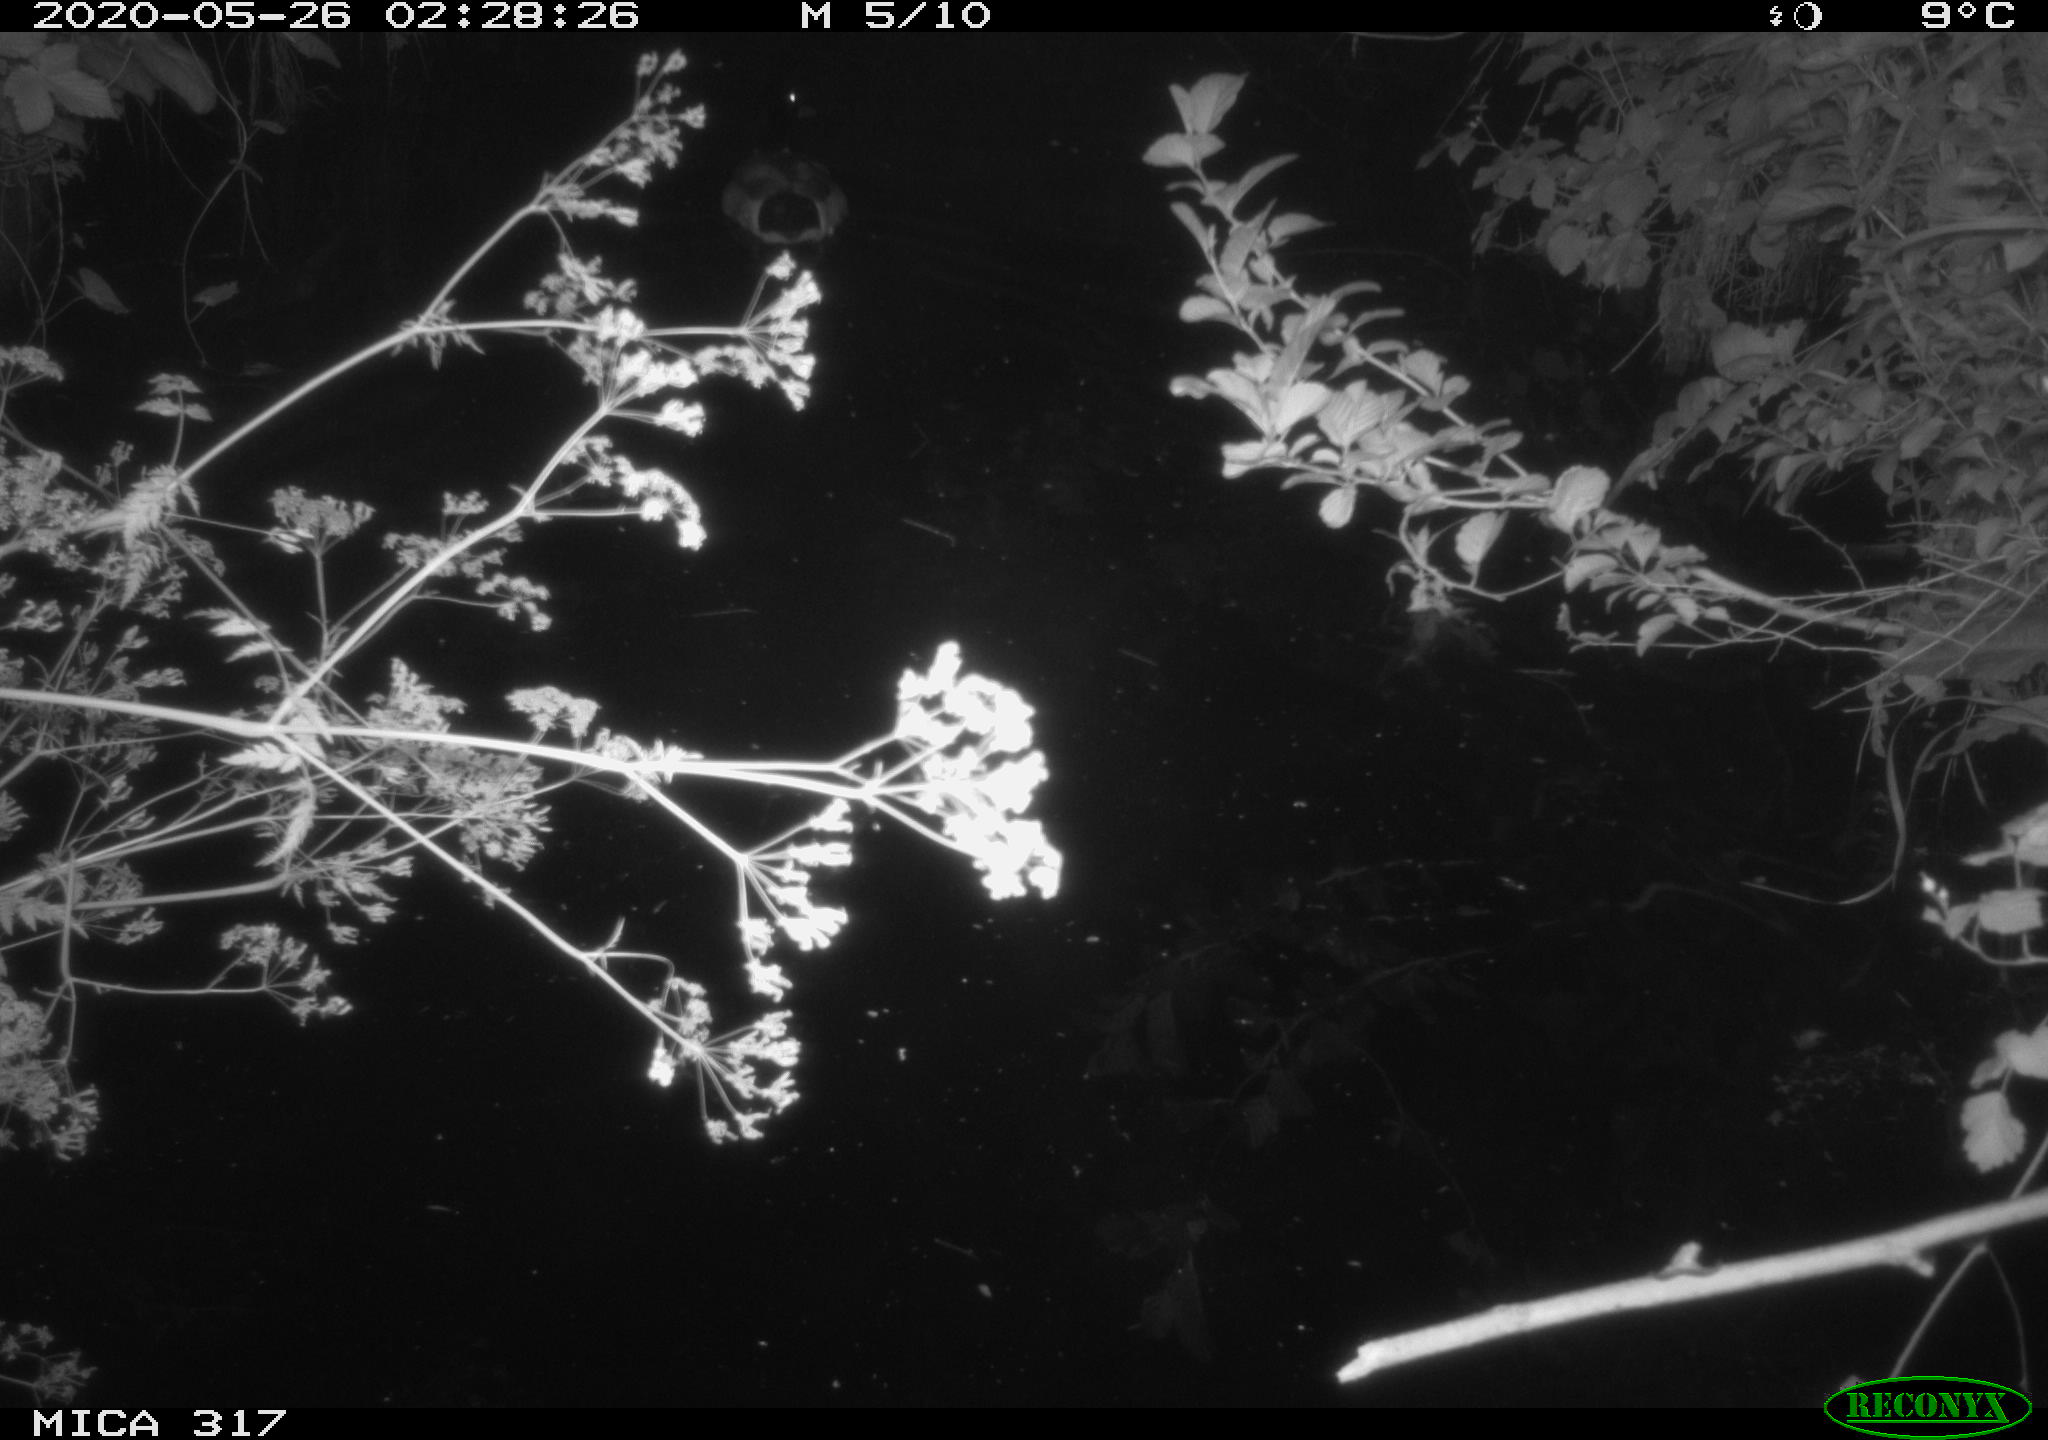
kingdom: Animalia
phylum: Chordata
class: Aves
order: Anseriformes
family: Anatidae
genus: Anas
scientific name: Anas platyrhynchos
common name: Mallard
